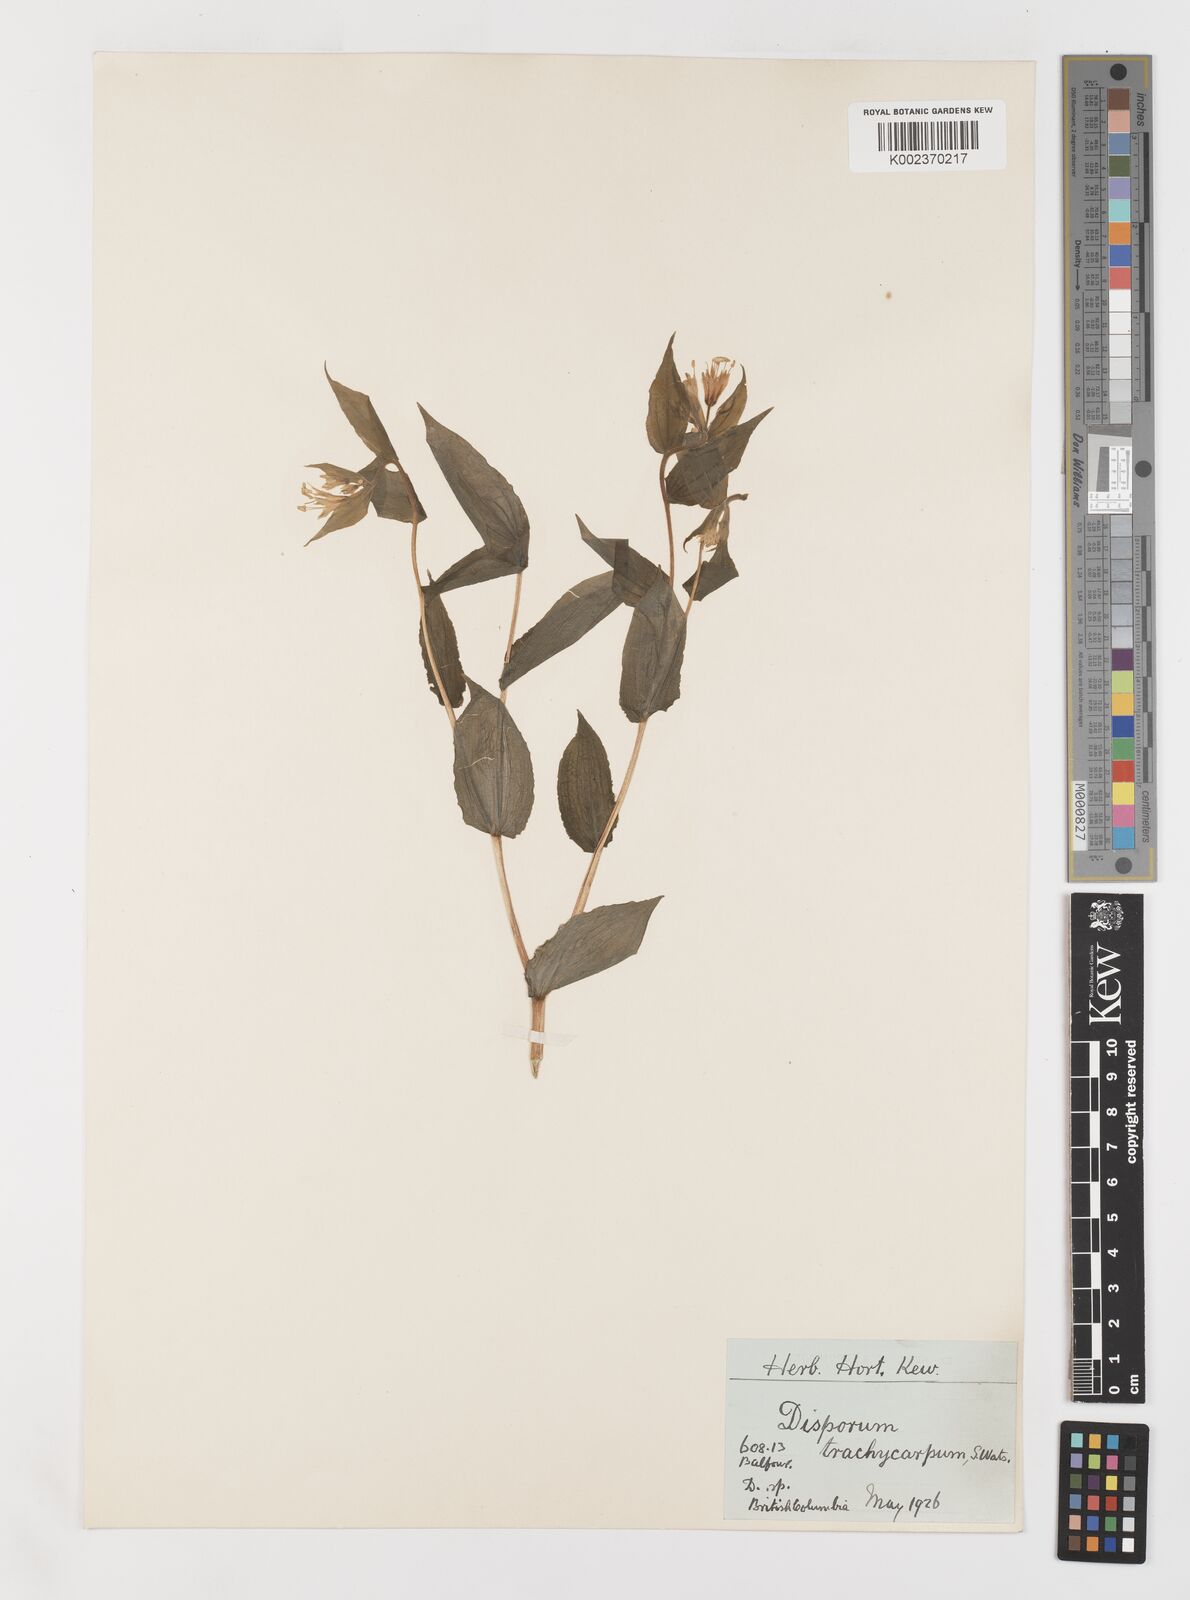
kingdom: Plantae
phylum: Tracheophyta
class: Liliopsida
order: Liliales
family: Liliaceae
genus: Prosartes
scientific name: Prosartes trachycarpa
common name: Rough-fruit fairy-bells
